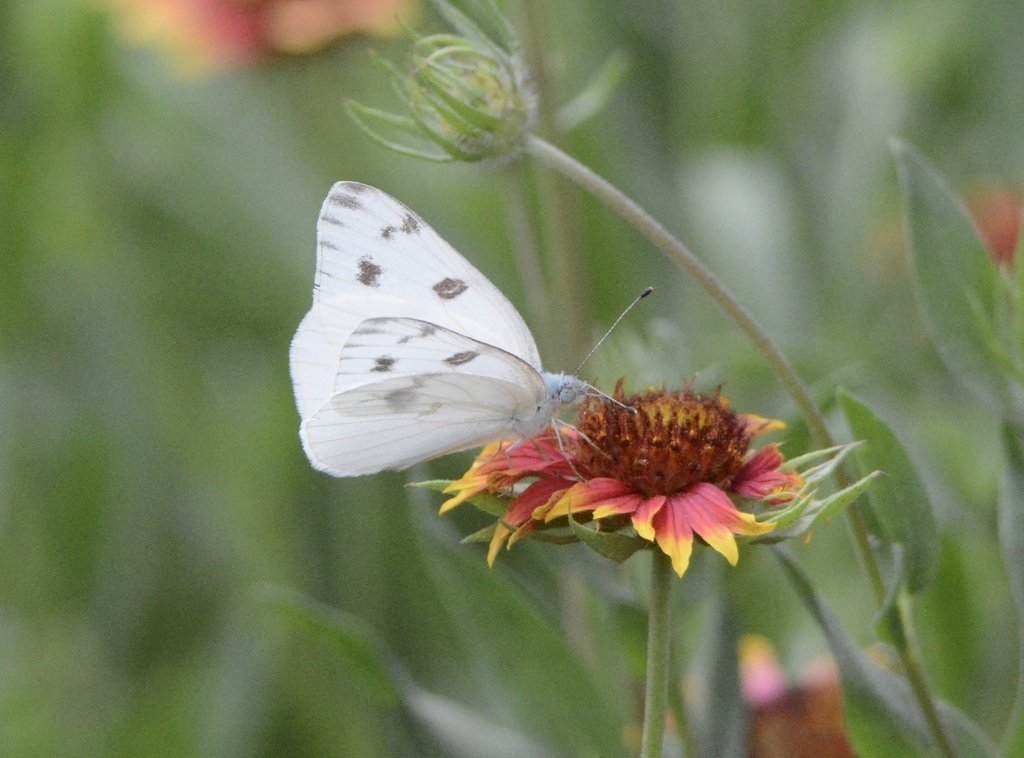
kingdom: Animalia
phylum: Arthropoda
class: Insecta
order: Lepidoptera
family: Pieridae
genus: Pontia
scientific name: Pontia protodice
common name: Checkered White
